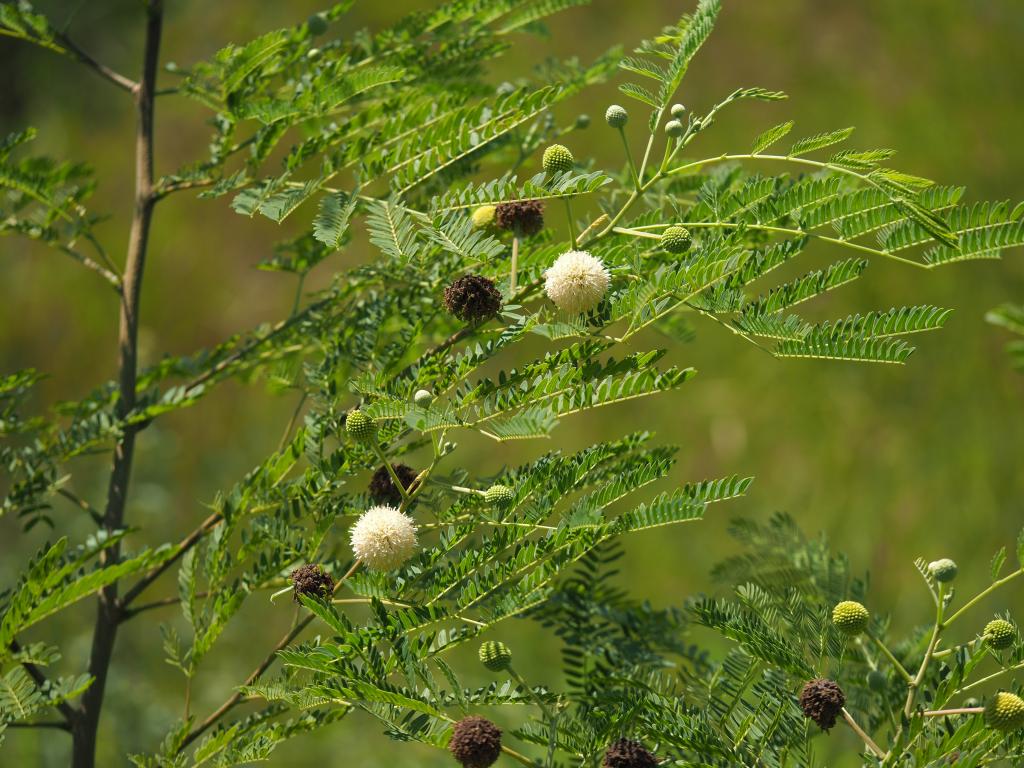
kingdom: Plantae
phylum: Tracheophyta
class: Magnoliopsida
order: Fabales
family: Fabaceae
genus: Leucaena
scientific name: Leucaena leucocephala
